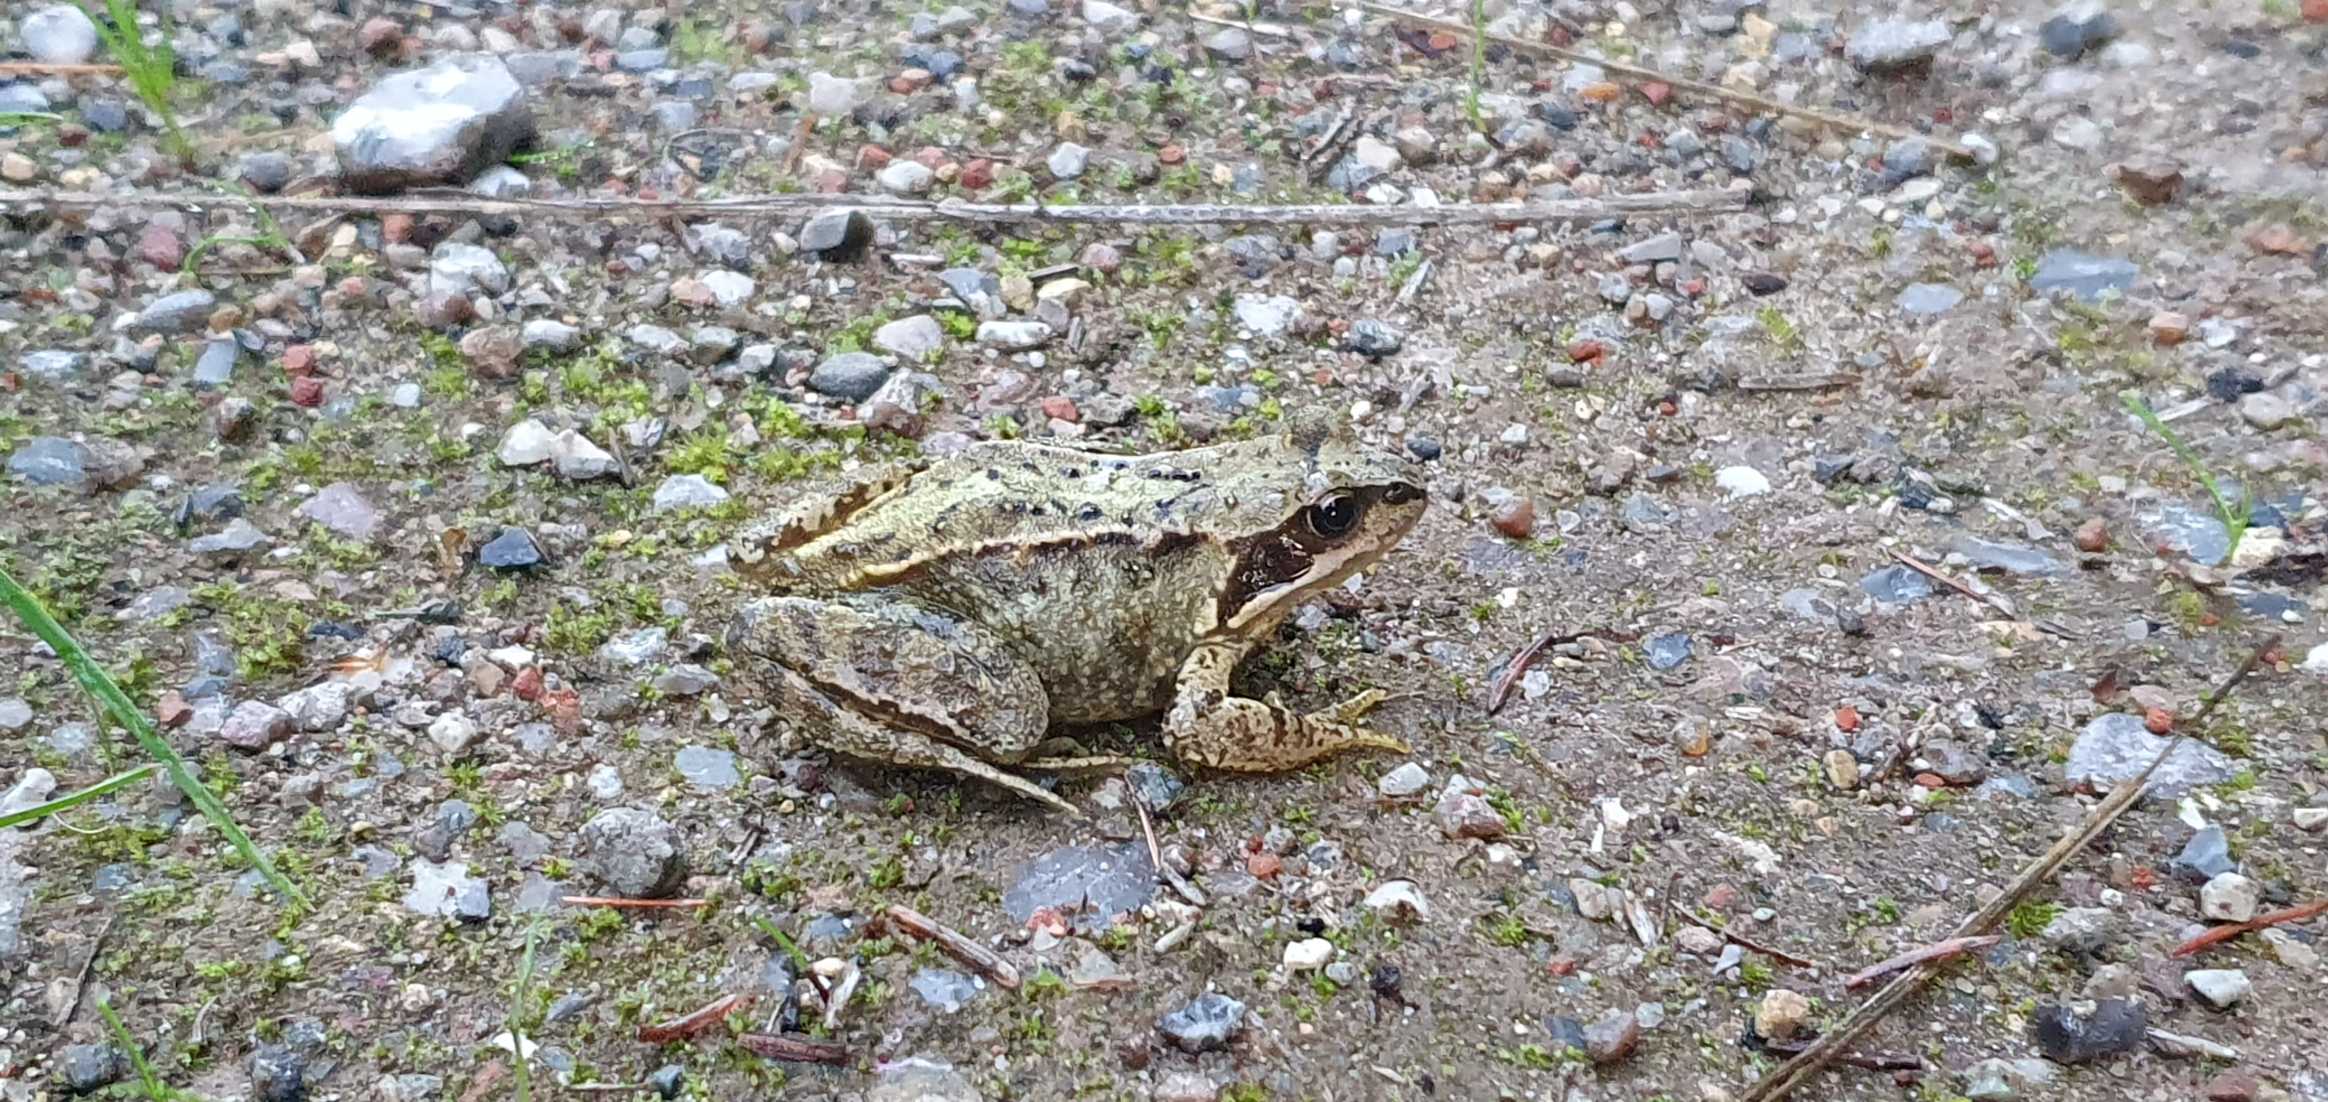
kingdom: Animalia
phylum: Chordata
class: Amphibia
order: Anura
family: Ranidae
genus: Rana
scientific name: Rana temporaria
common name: Butsnudet frø
